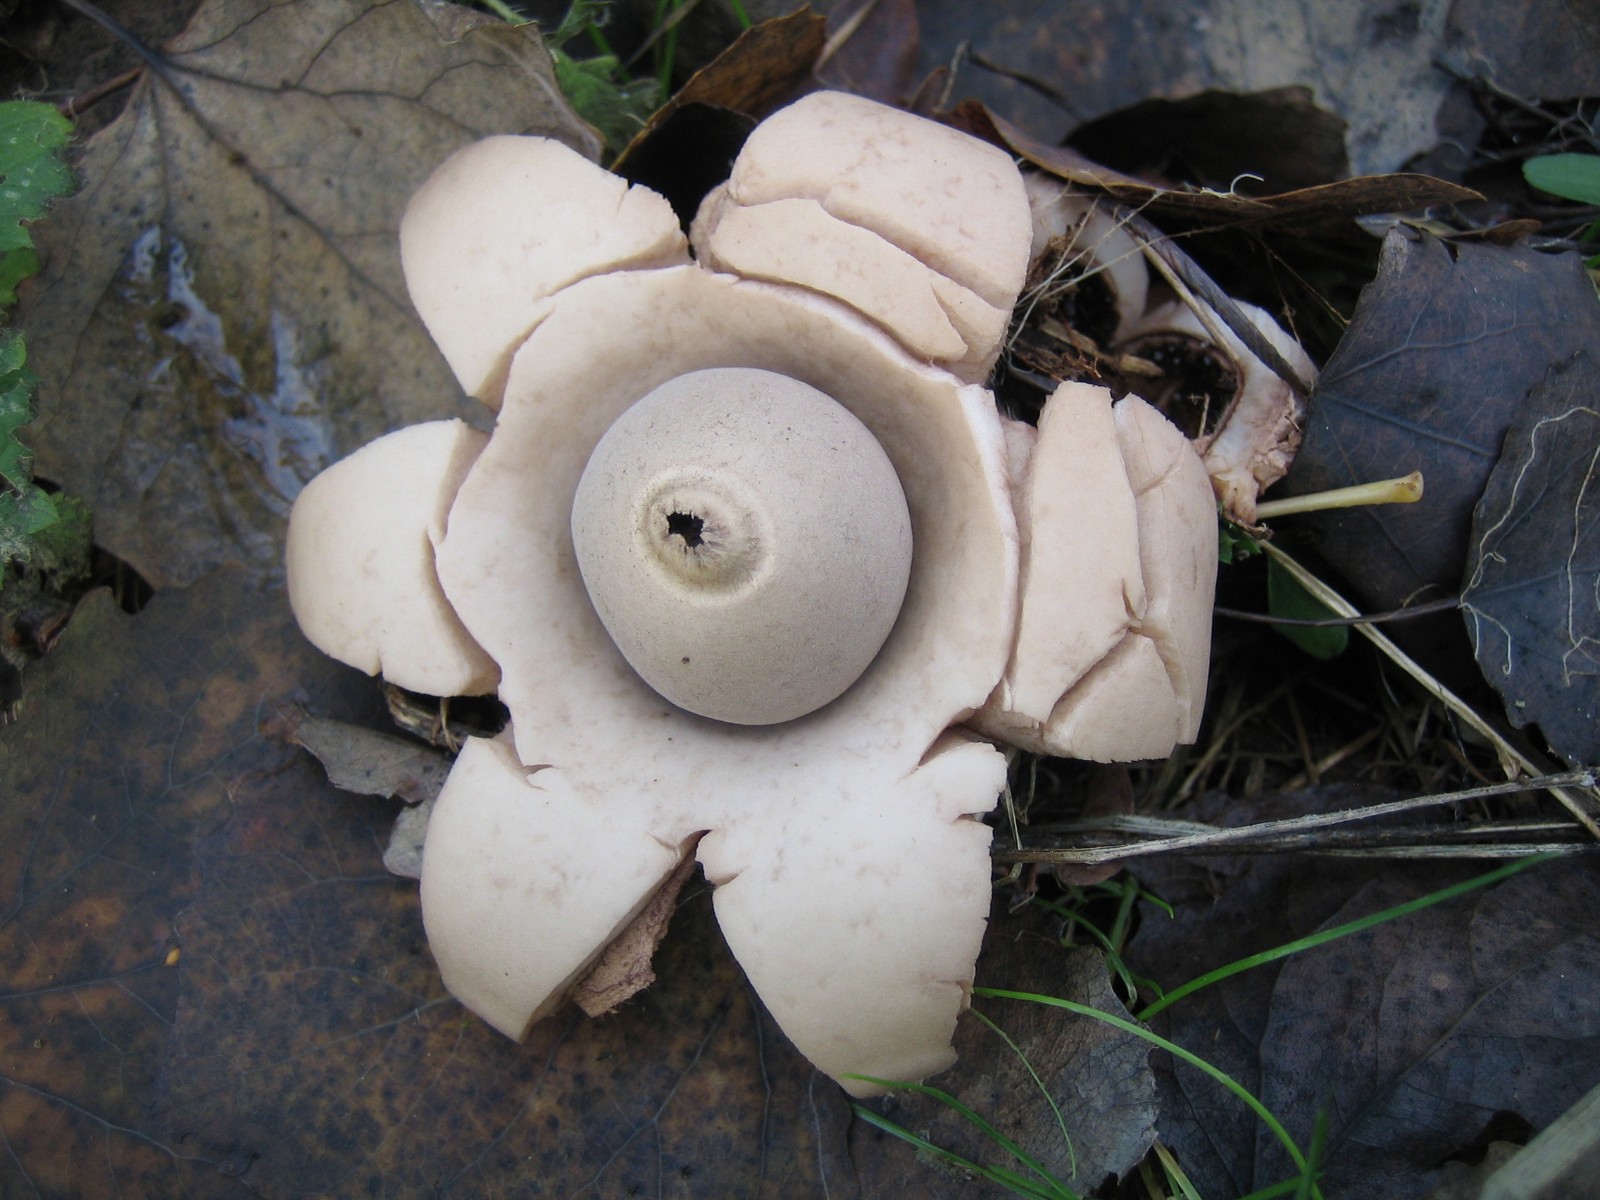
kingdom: Fungi
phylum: Basidiomycota
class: Agaricomycetes
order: Geastrales
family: Geastraceae
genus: Geastrum
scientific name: Geastrum michelianum
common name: kødet stjernebold
